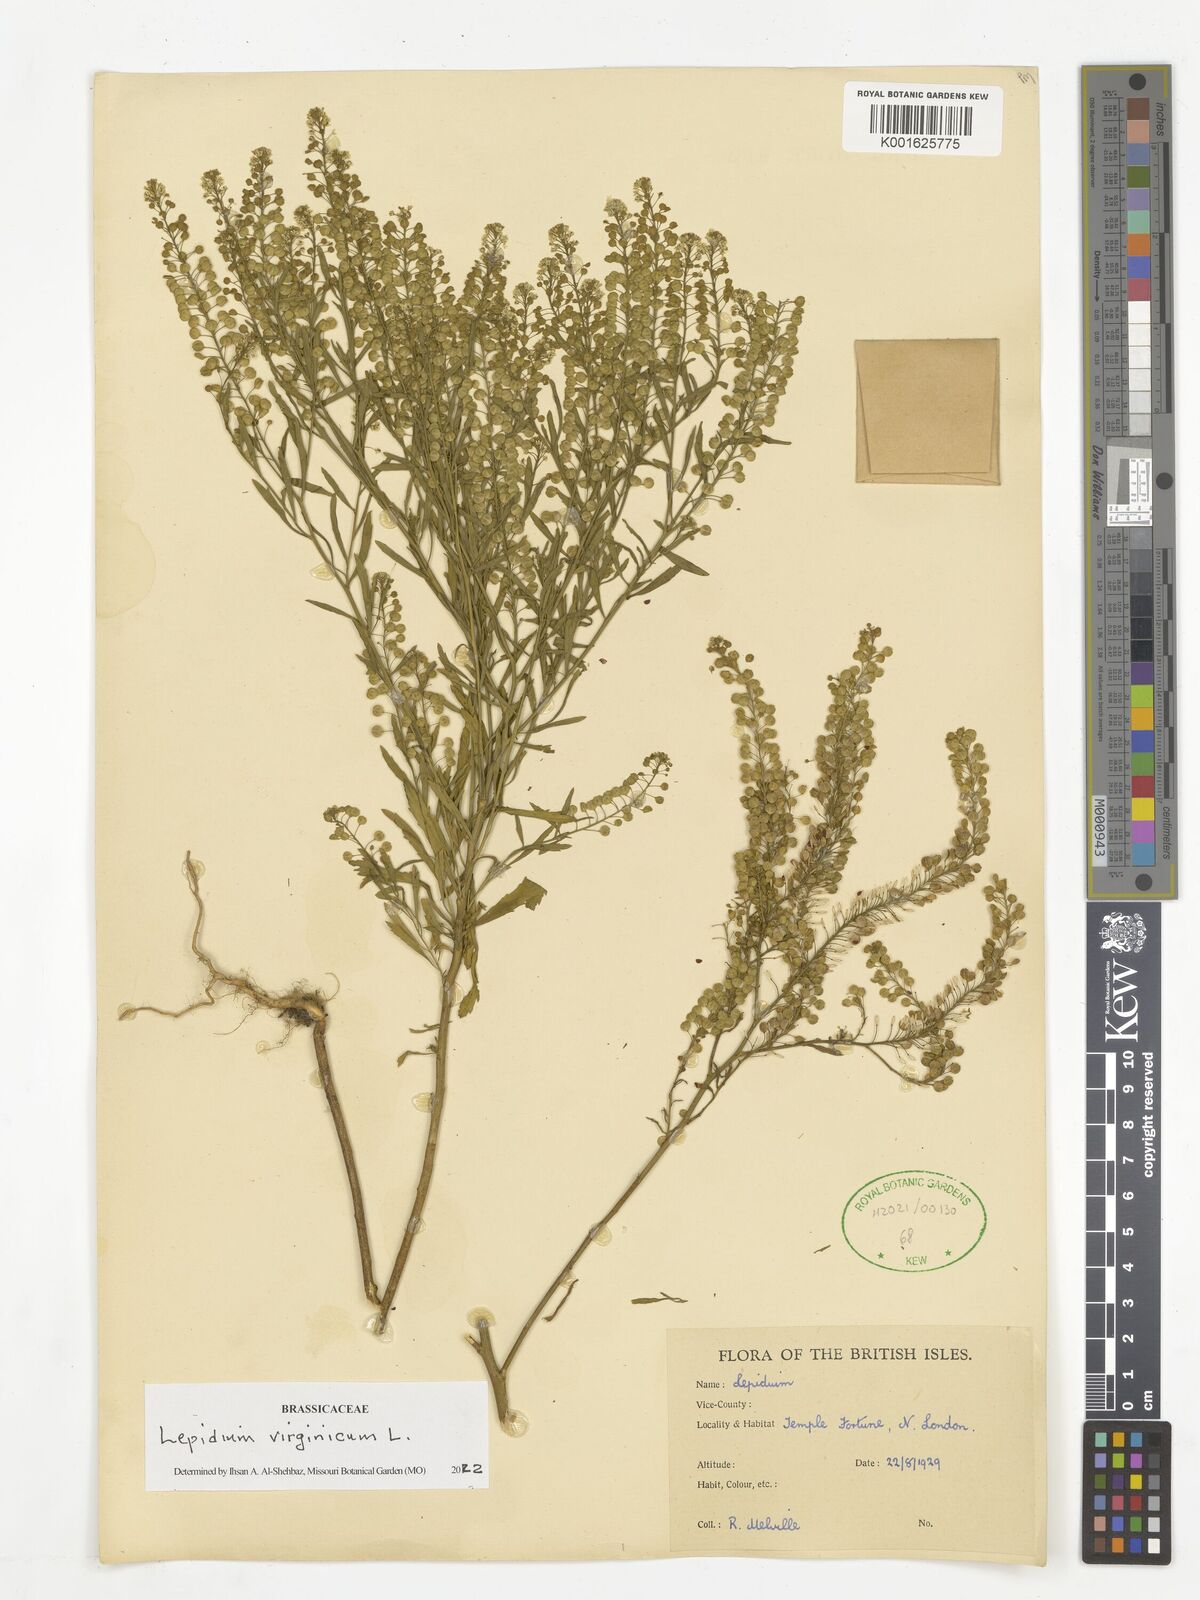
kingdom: Plantae
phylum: Tracheophyta
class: Magnoliopsida
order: Brassicales
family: Brassicaceae
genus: Lepidium
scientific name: Lepidium virginicum
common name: Least pepperwort
